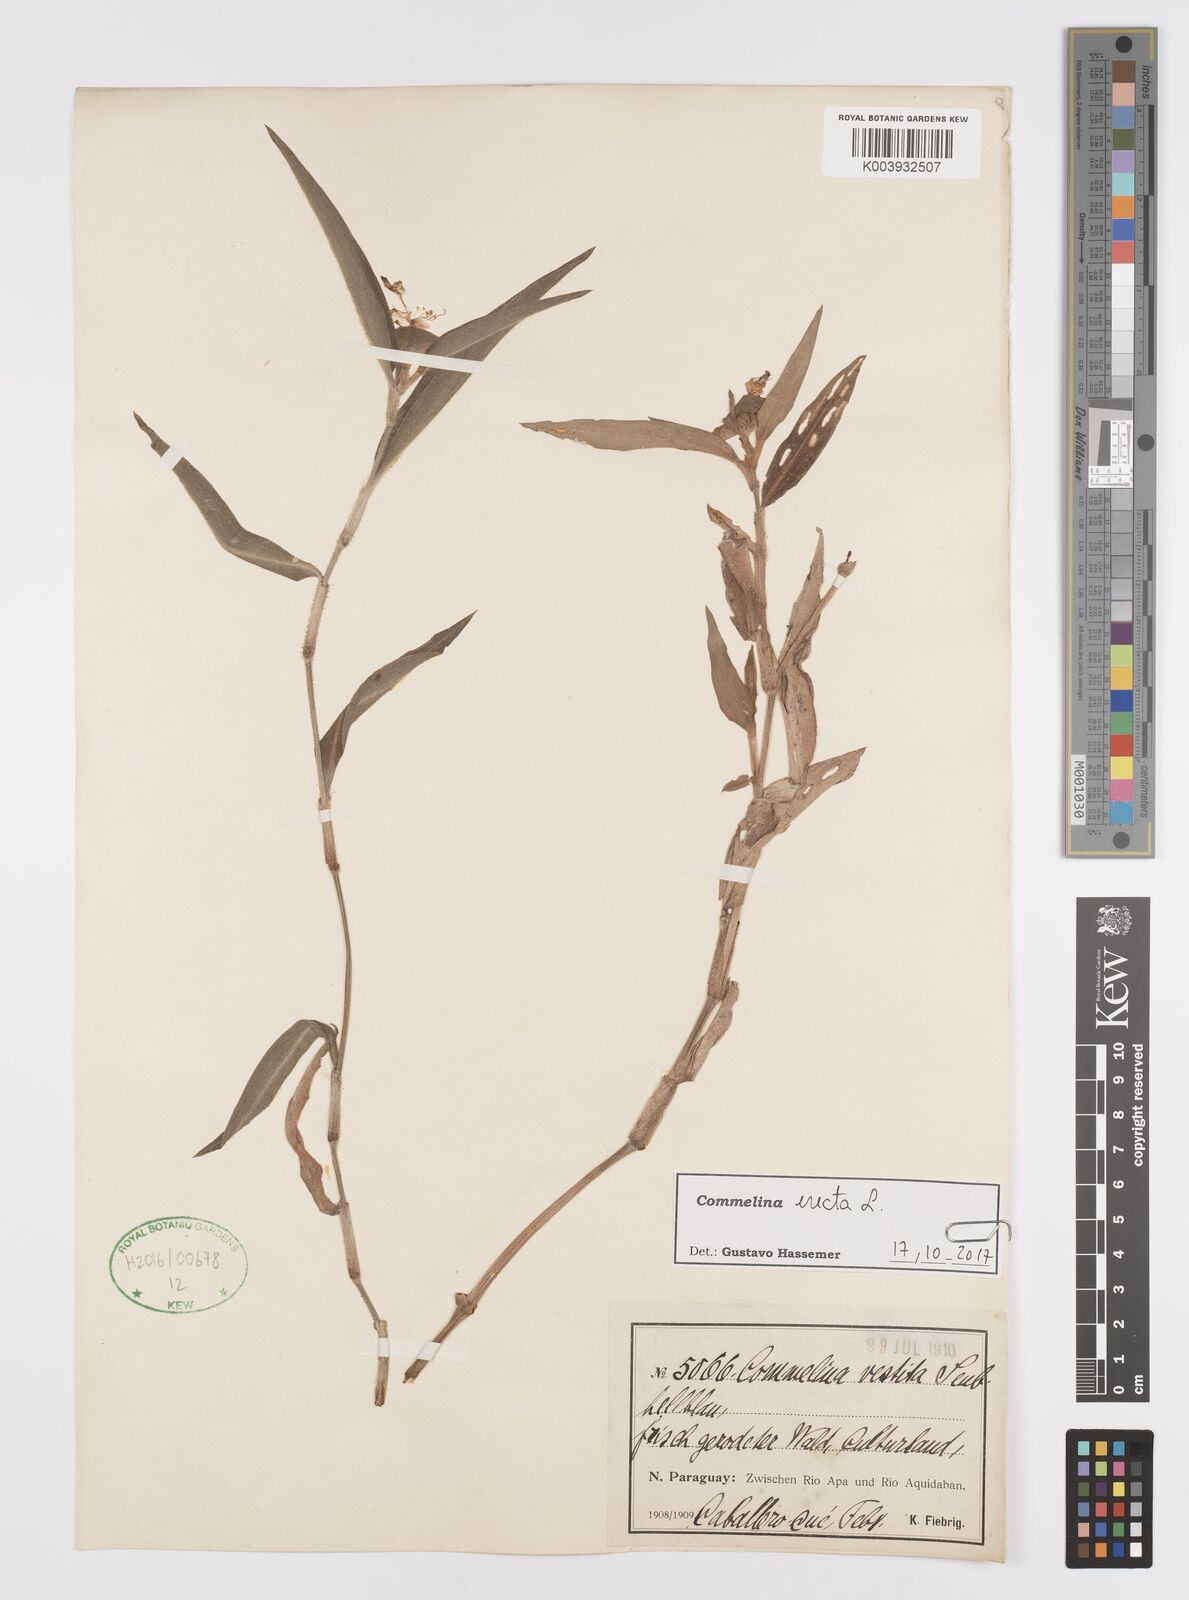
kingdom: Plantae
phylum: Tracheophyta
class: Liliopsida
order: Commelinales
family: Commelinaceae
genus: Commelina
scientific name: Commelina erecta
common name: Blousel blommetjie
